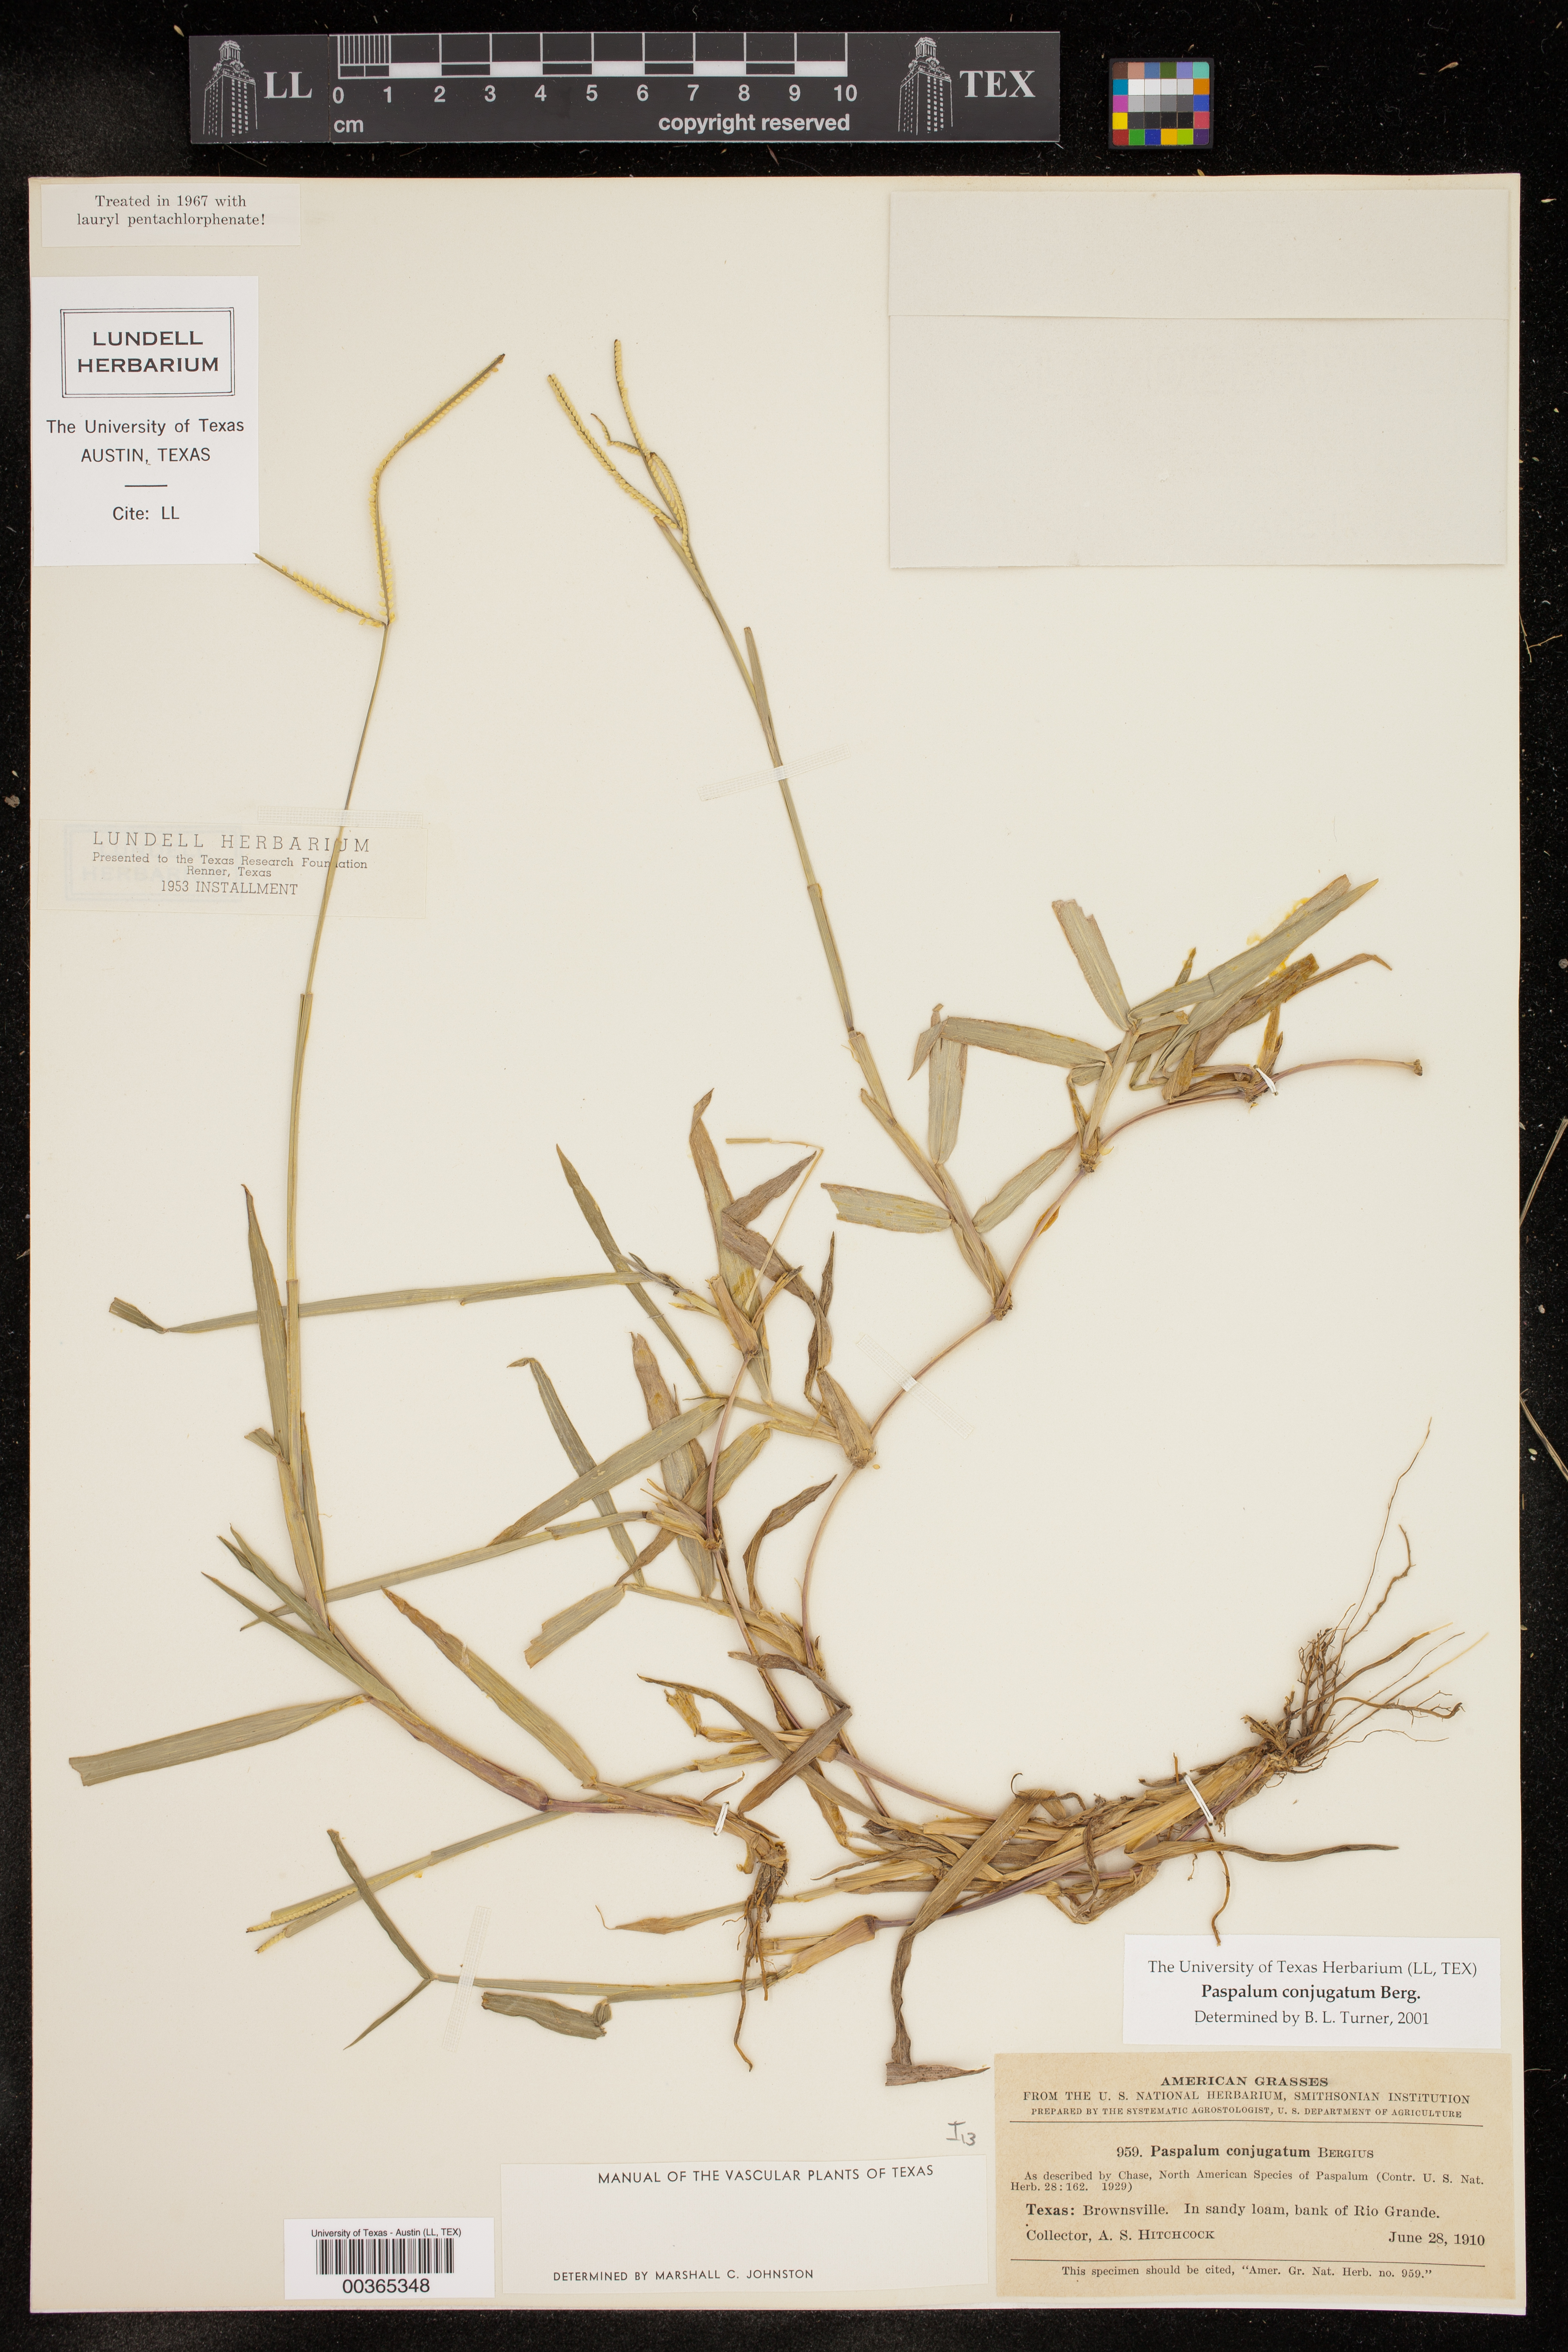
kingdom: Plantae
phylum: Tracheophyta
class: Liliopsida
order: Poales
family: Poaceae
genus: Paspalum
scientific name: Paspalum conjugatum
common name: Hilograss
